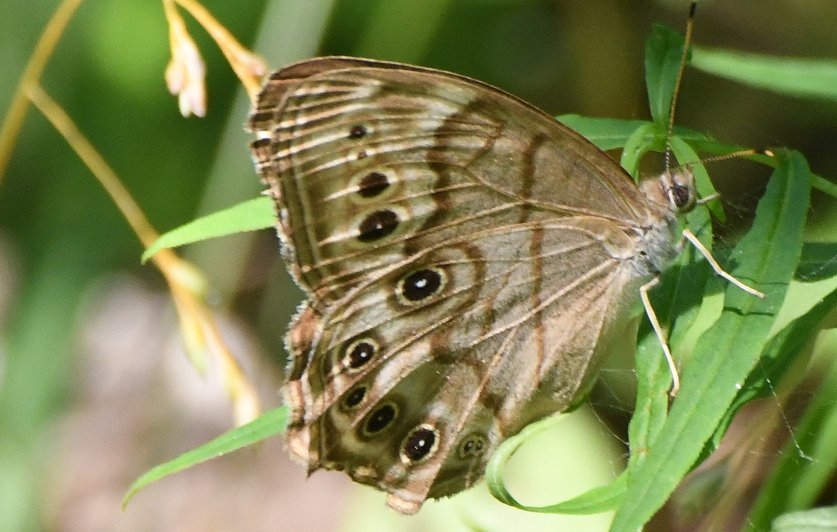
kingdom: Animalia
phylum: Arthropoda
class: Insecta
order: Lepidoptera
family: Nymphalidae
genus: Lethe
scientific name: Lethe anthedon
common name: Northern Pearly-Eye
